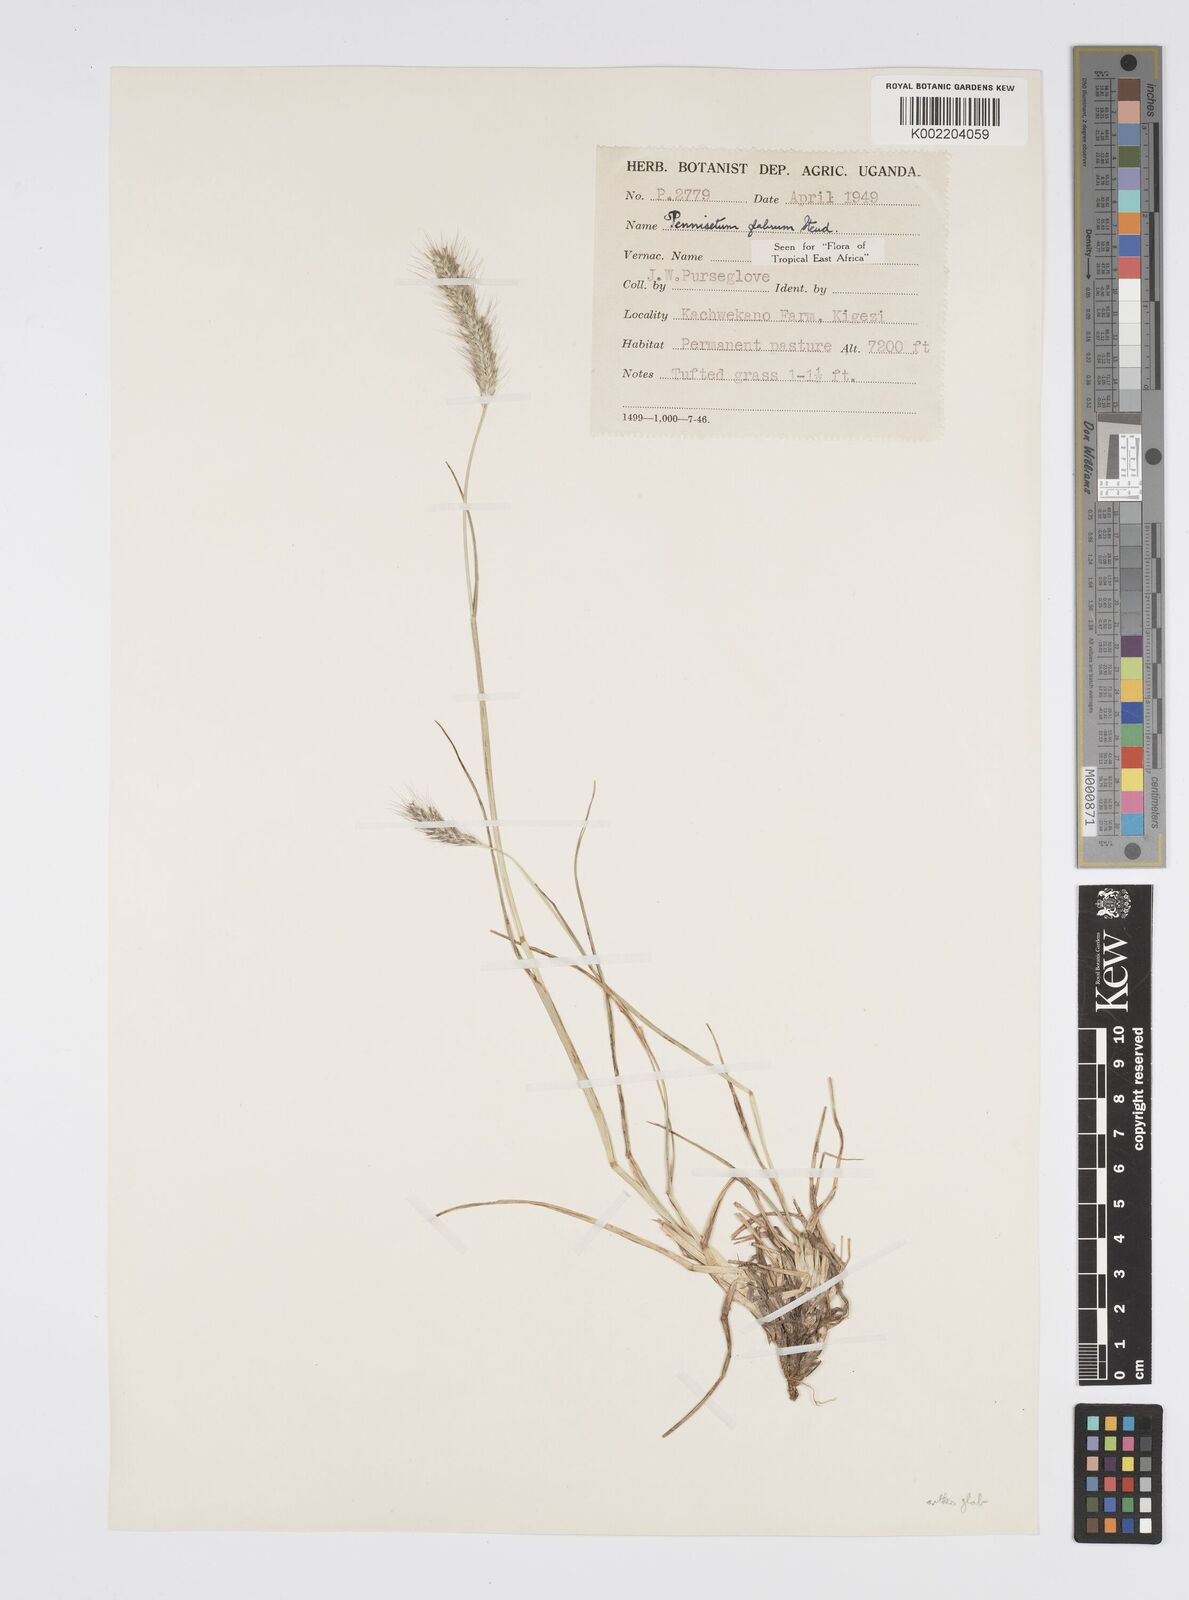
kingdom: Plantae
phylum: Tracheophyta
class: Liliopsida
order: Poales
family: Poaceae
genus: Cenchrus
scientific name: Cenchrus geniculatus
